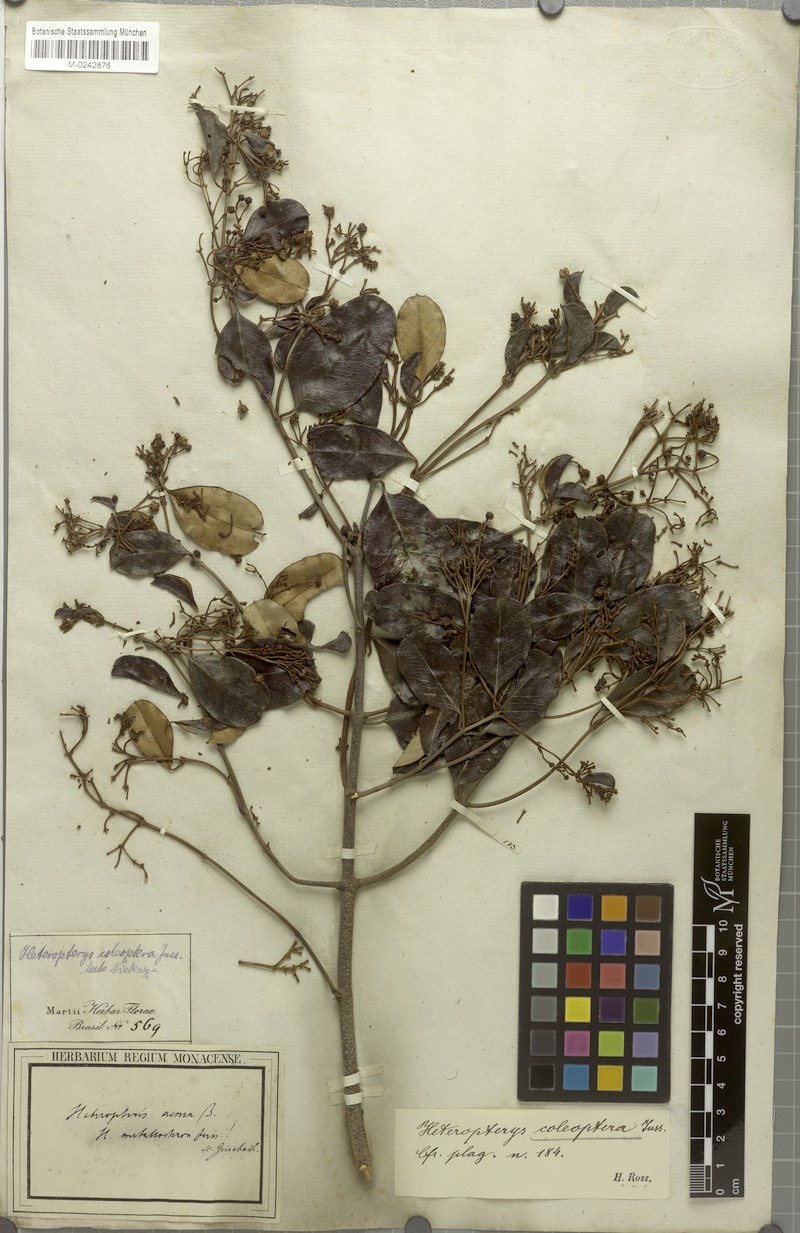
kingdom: Plantae
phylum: Tracheophyta
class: Magnoliopsida
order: Malpighiales
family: Malpighiaceae
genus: Heteropterys
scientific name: Heteropterys coleoptera
